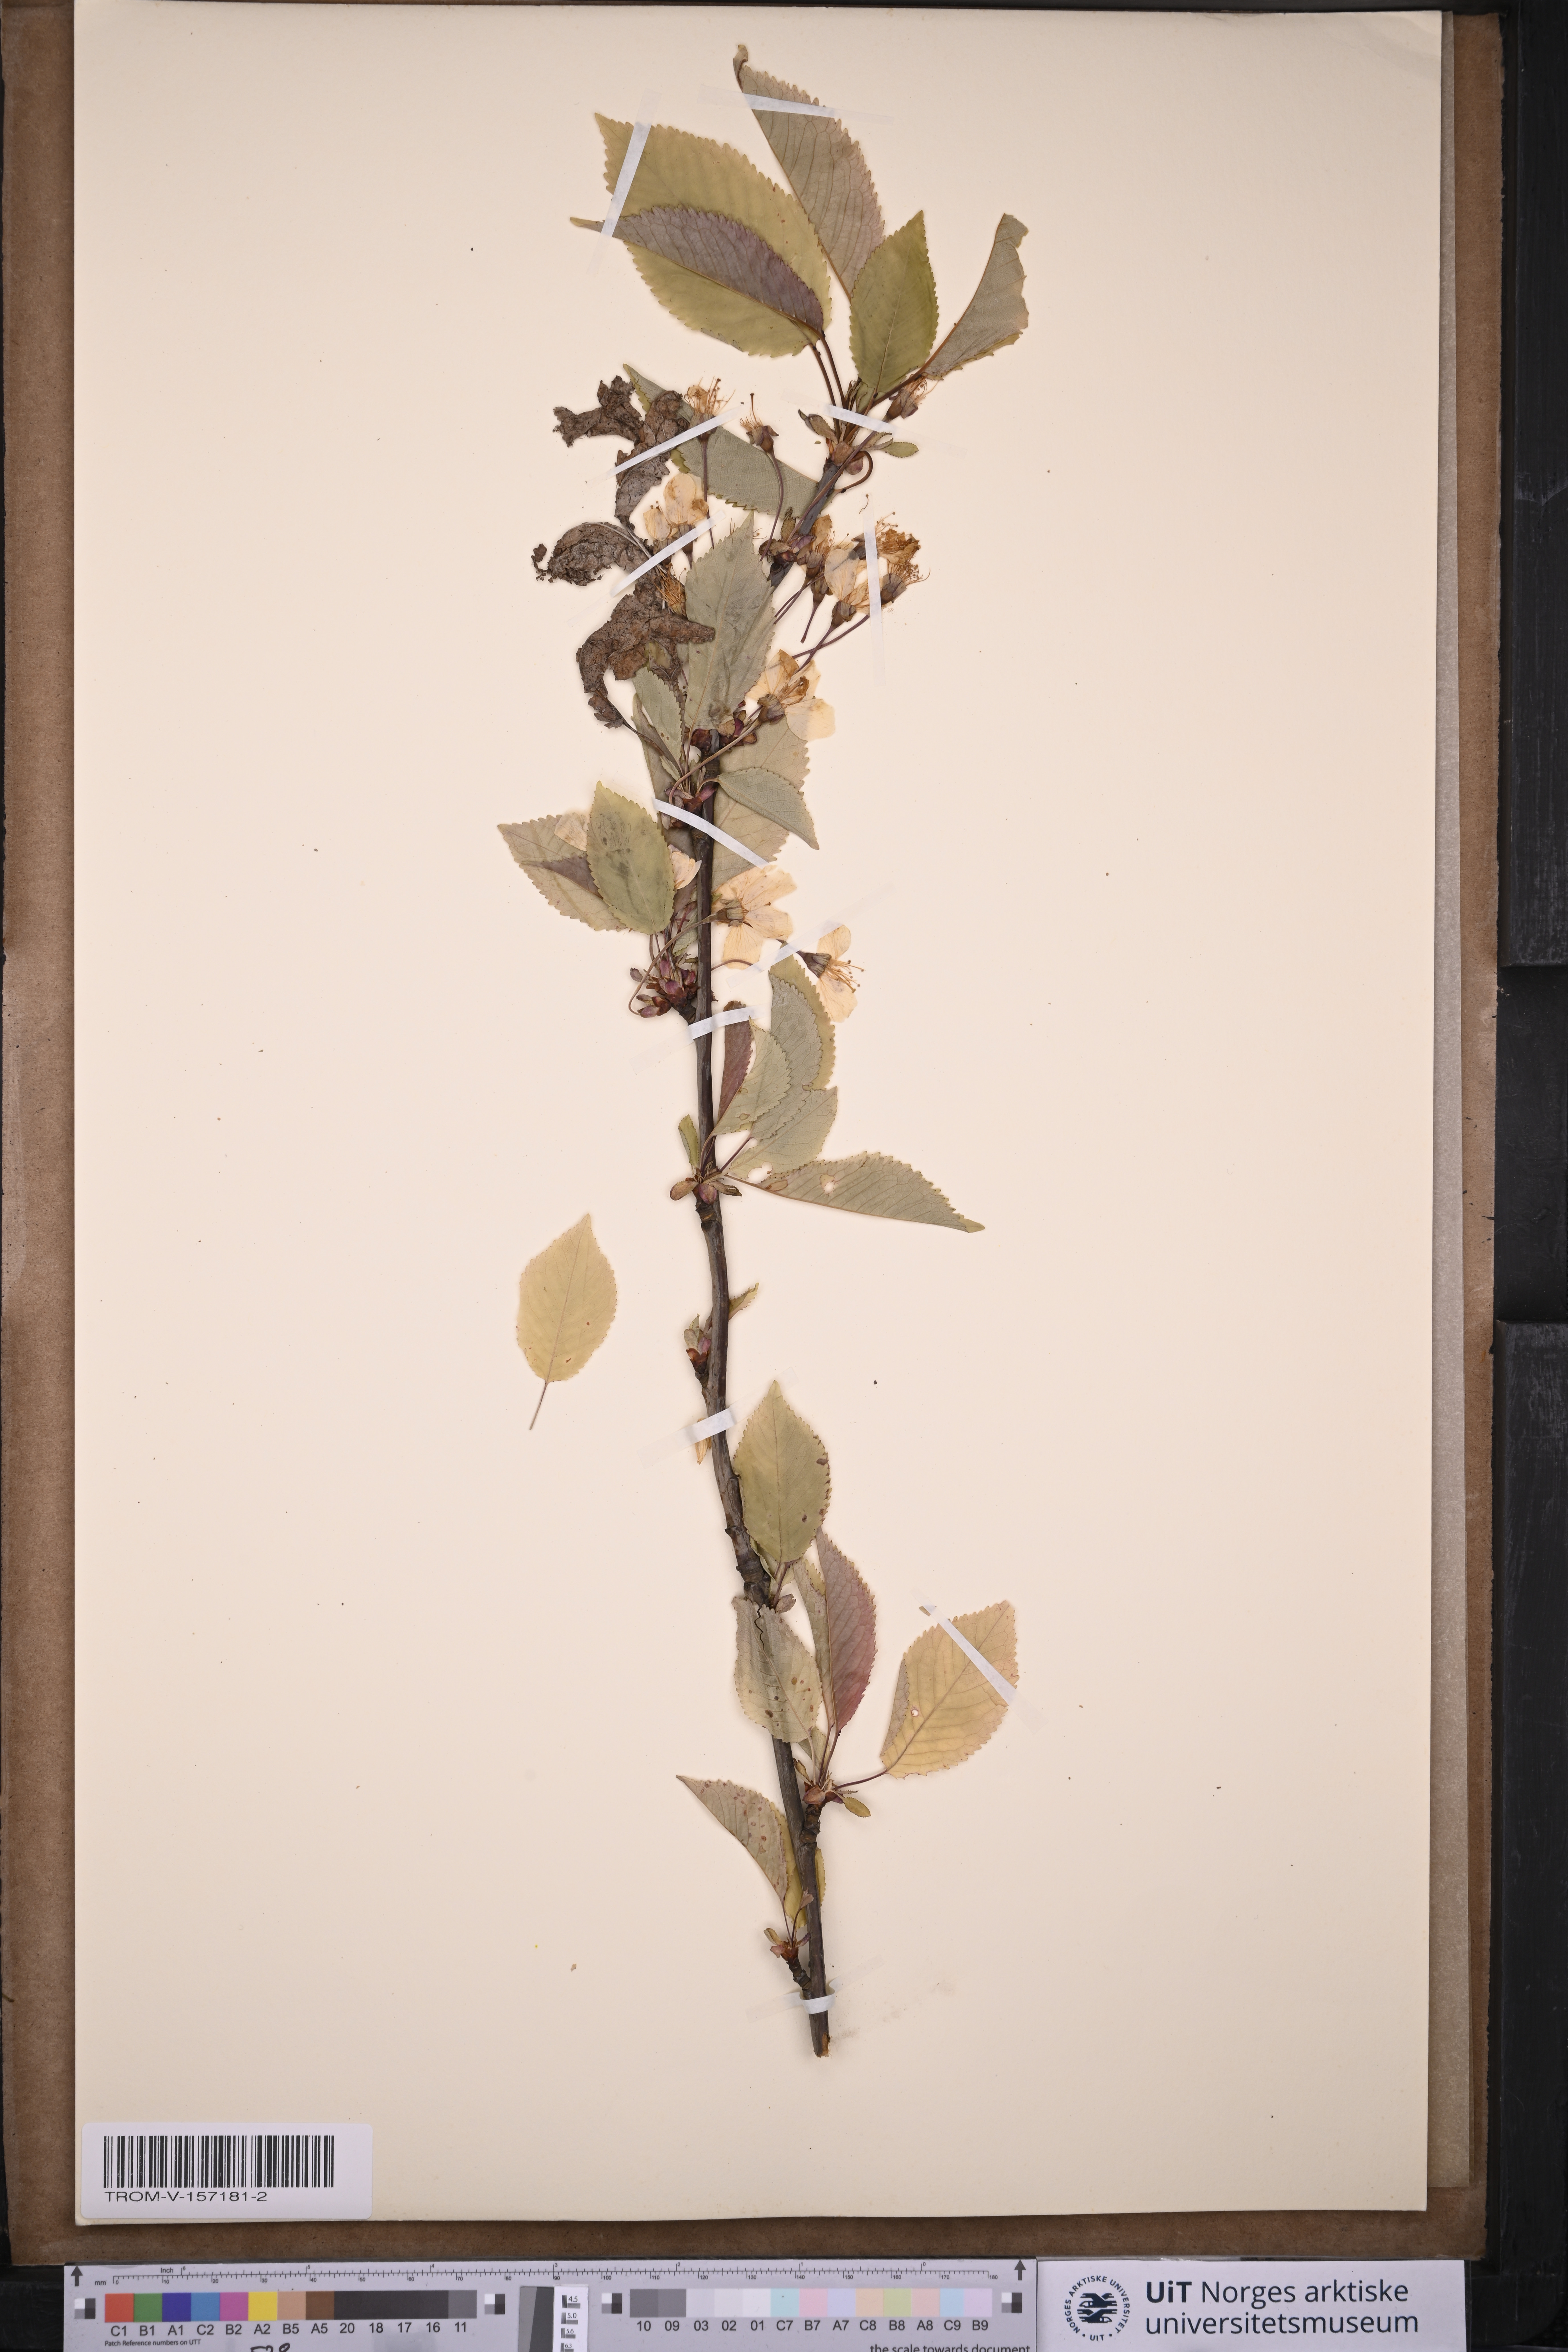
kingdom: Plantae
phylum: Tracheophyta
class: Magnoliopsida
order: Rosales
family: Rosaceae
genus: Prunus
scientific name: Prunus avium
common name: Sweet cherry
